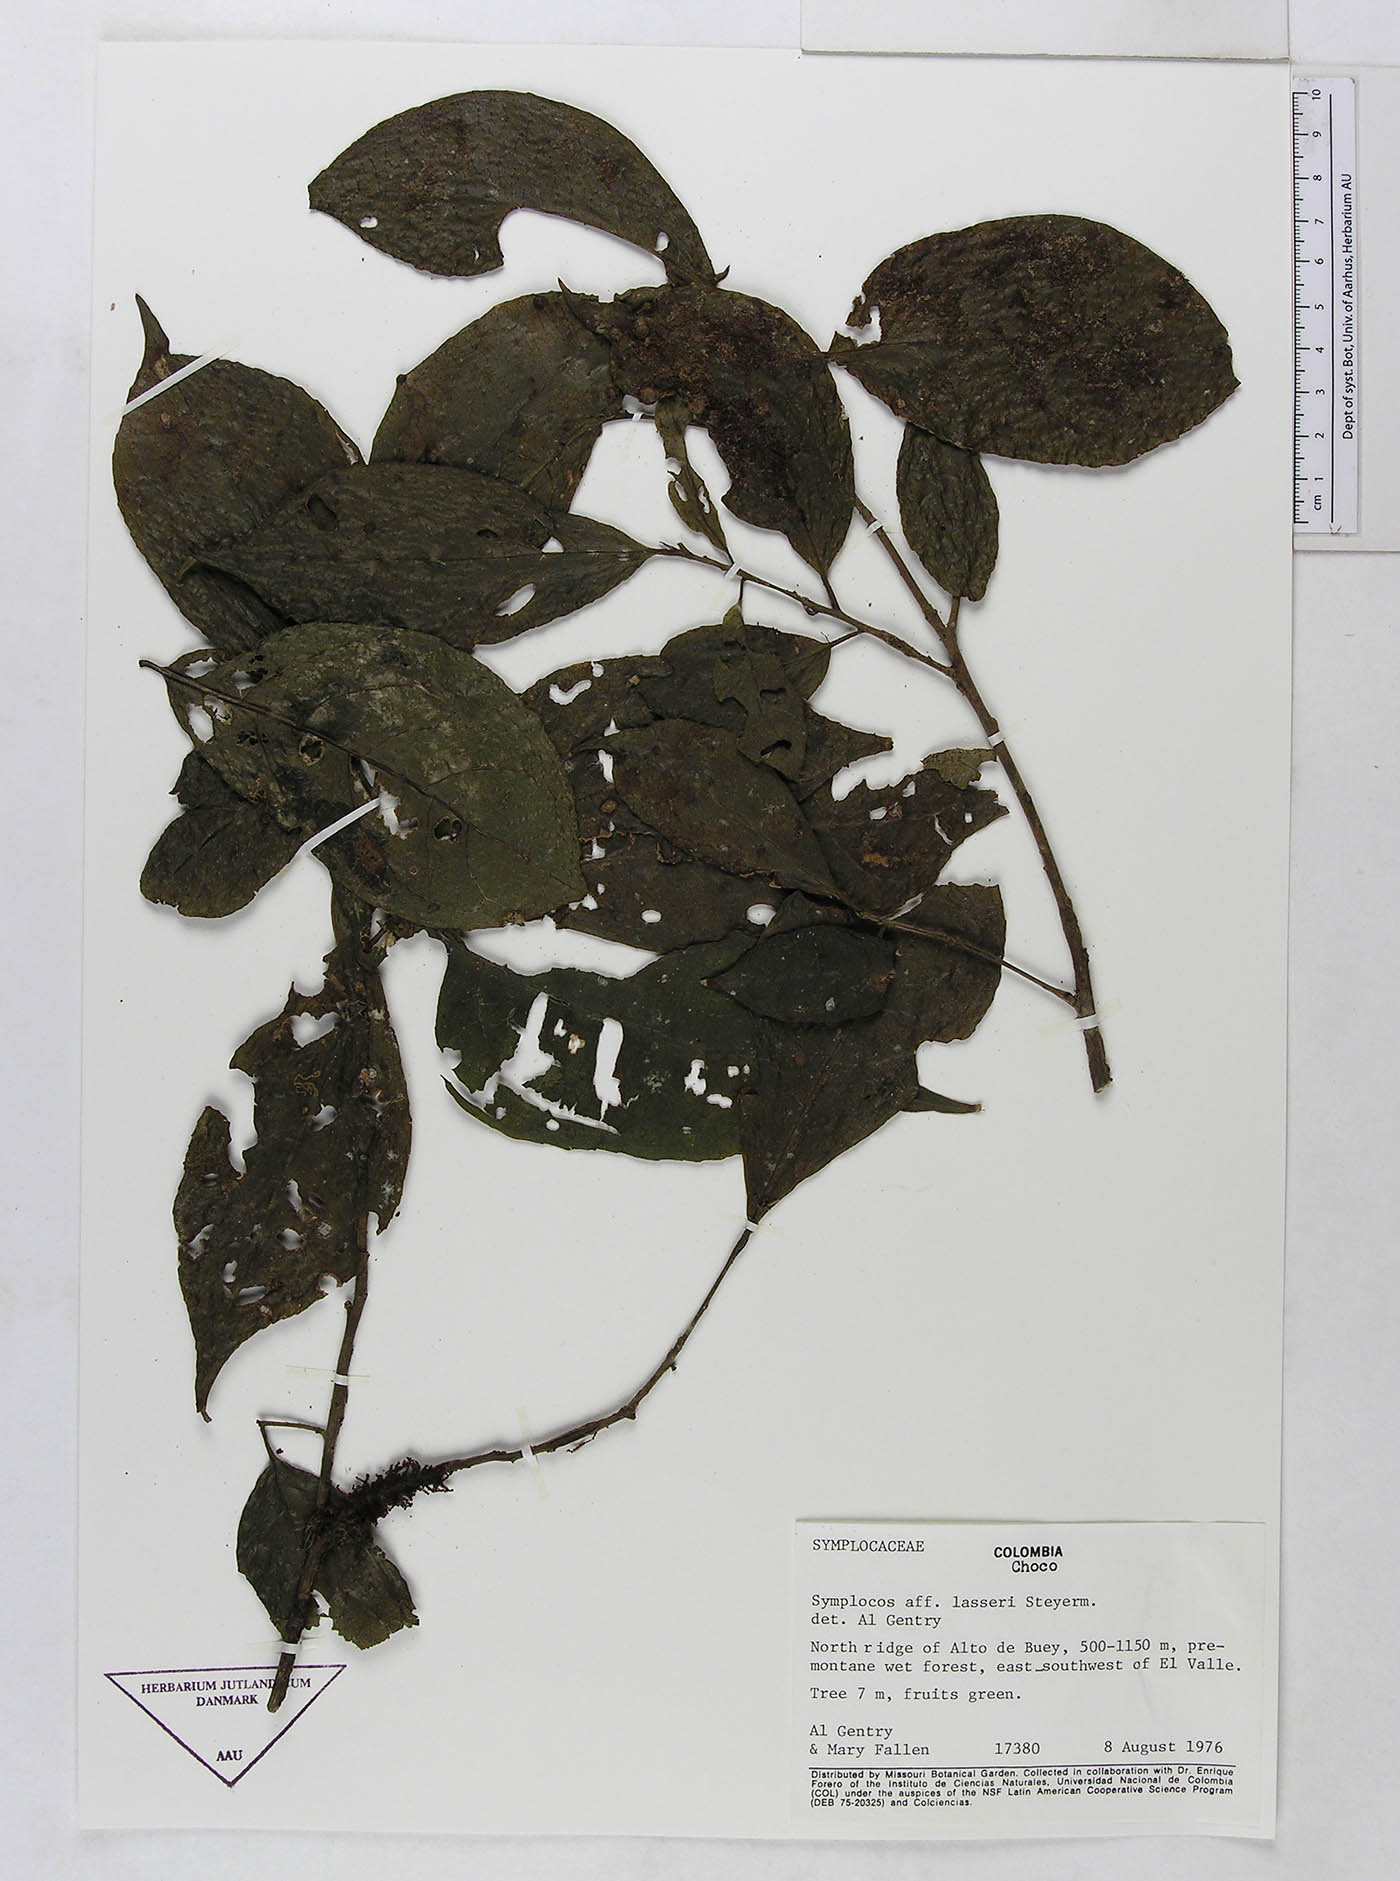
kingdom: Plantae
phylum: Tracheophyta
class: Magnoliopsida
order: Ericales
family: Symplocaceae
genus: Symplocos
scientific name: Symplocos
